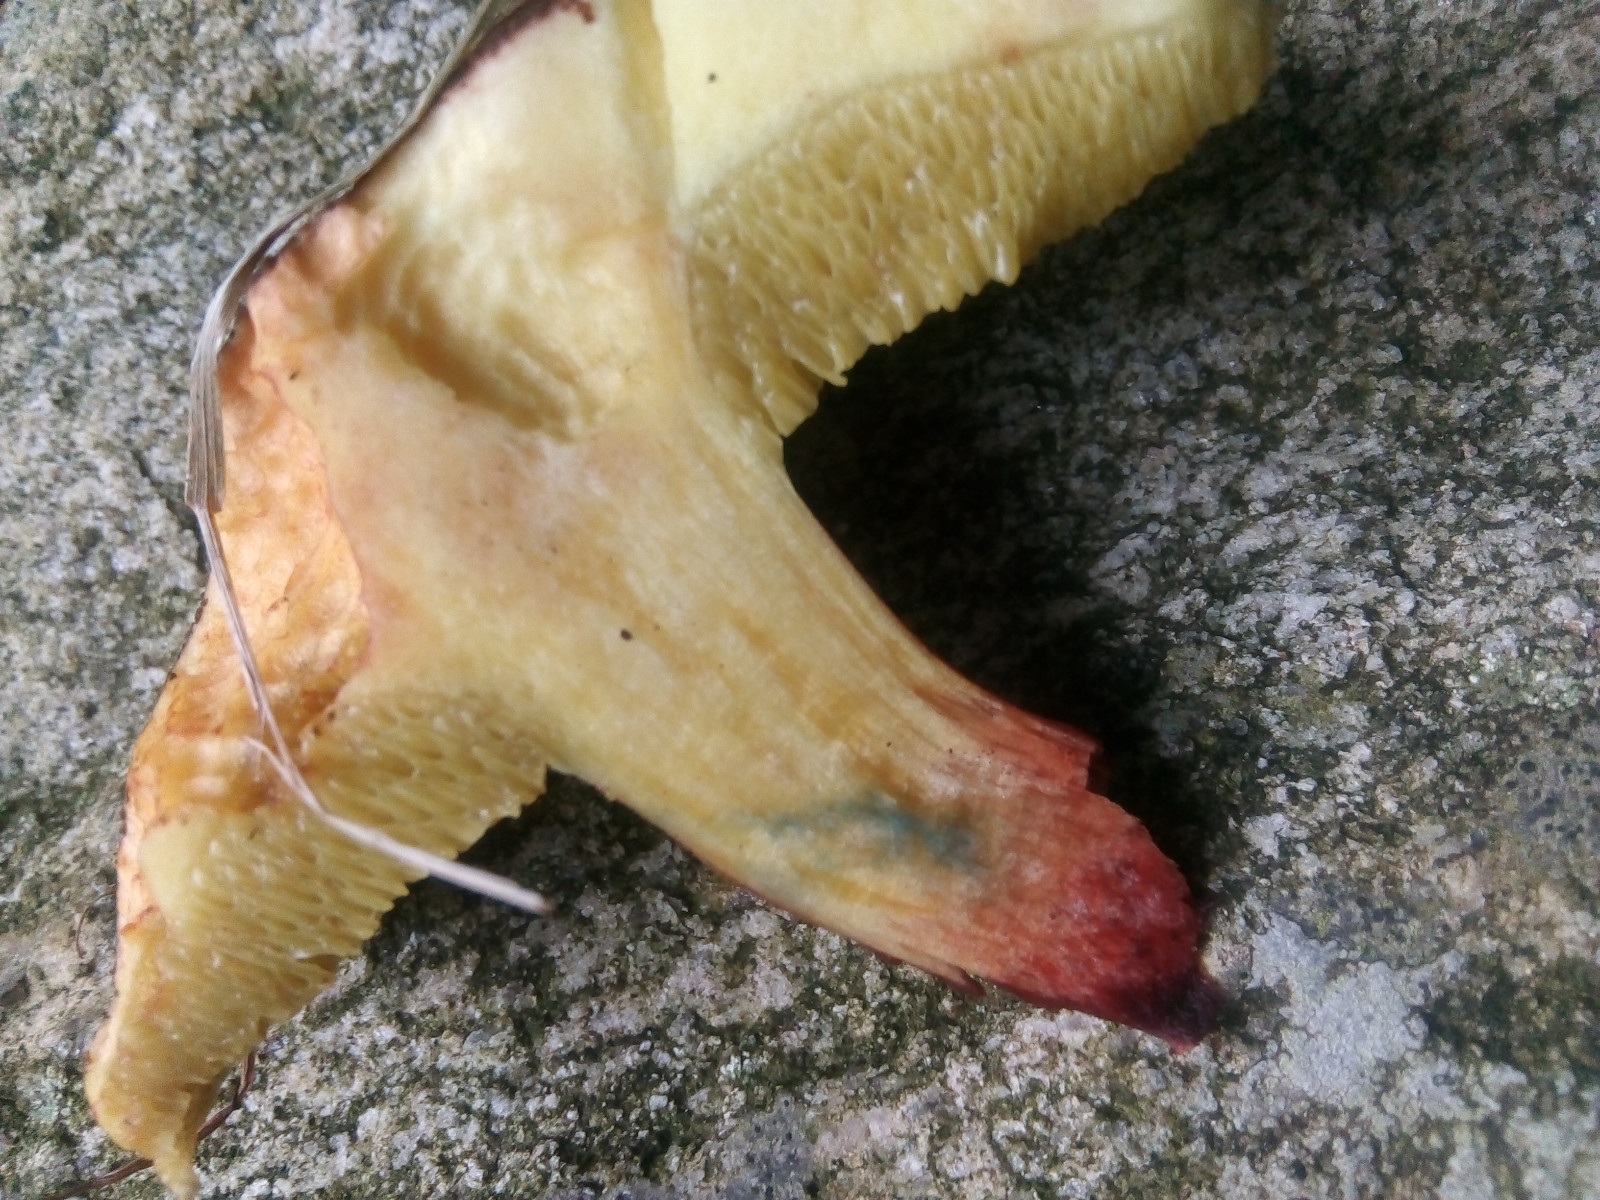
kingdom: Fungi
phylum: Basidiomycota
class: Agaricomycetes
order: Boletales
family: Boletaceae
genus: Xerocomellus
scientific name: Xerocomellus cisalpinus
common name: finsprukken rørhat
